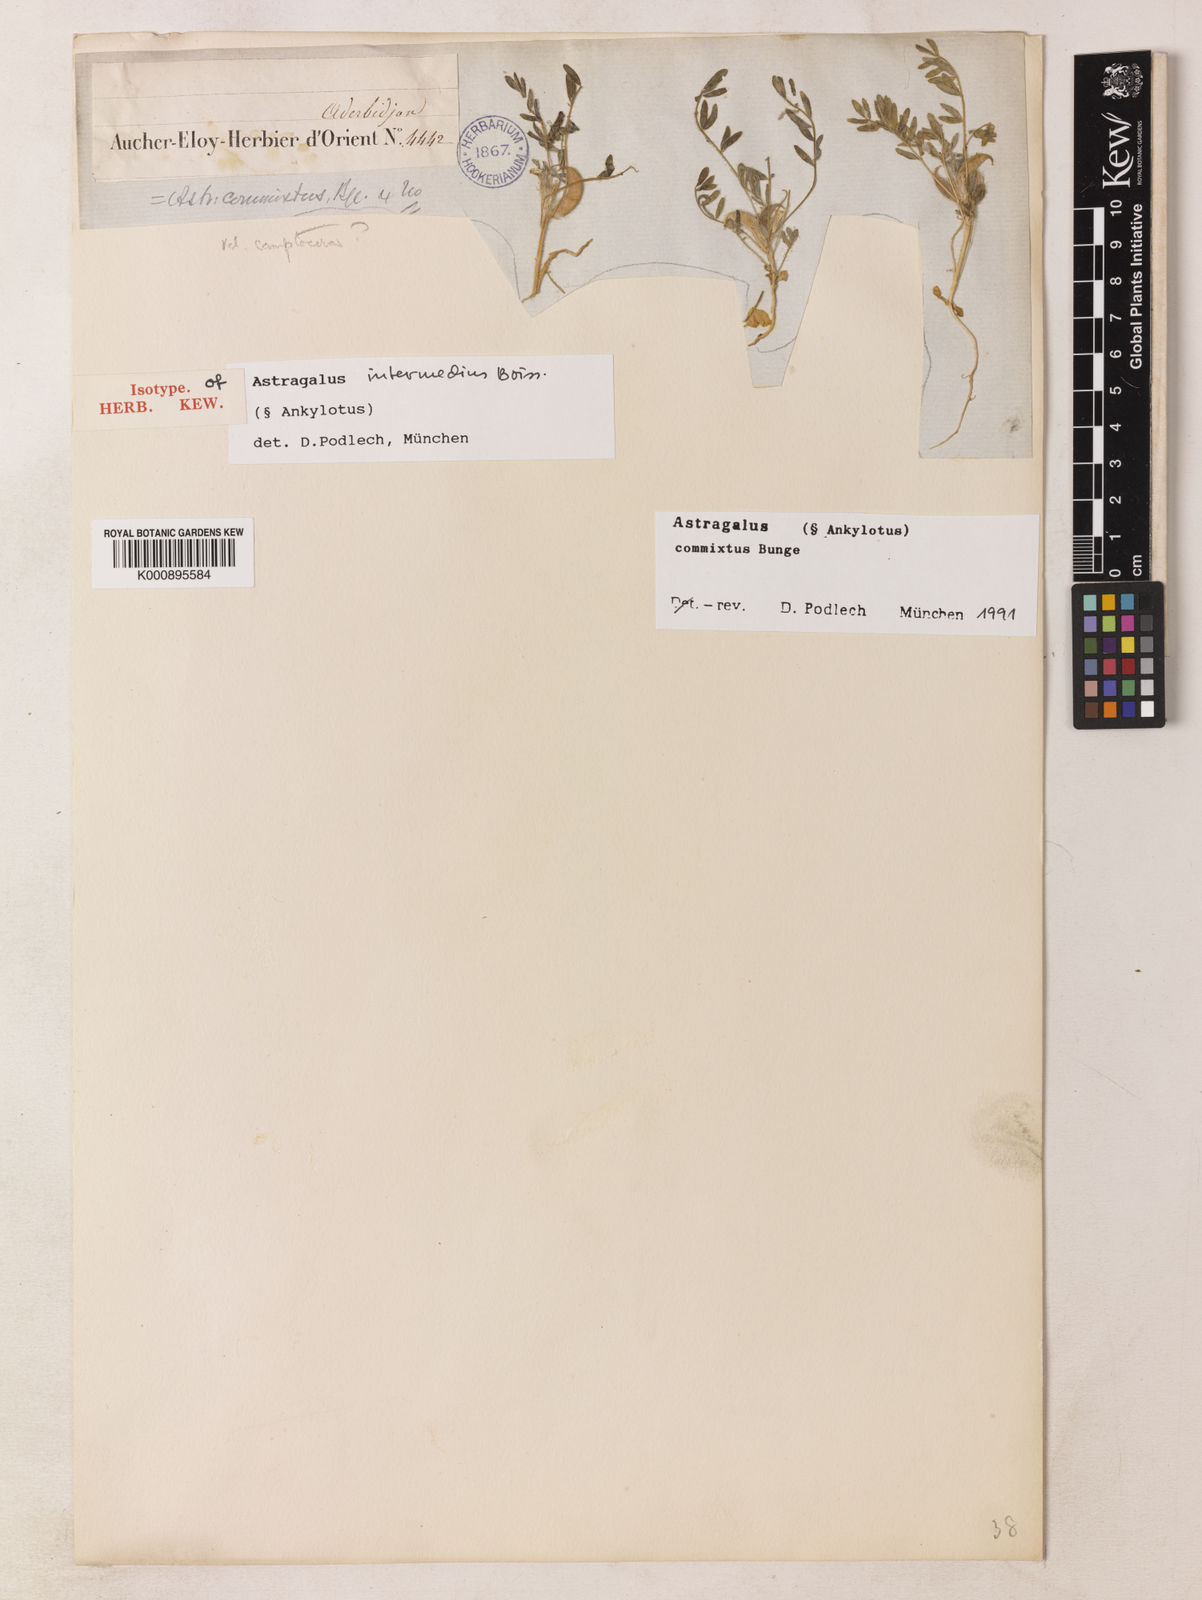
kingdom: Plantae
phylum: Tracheophyta
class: Magnoliopsida
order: Fabales
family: Fabaceae
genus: Astragalus
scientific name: Astragalus commixtus
